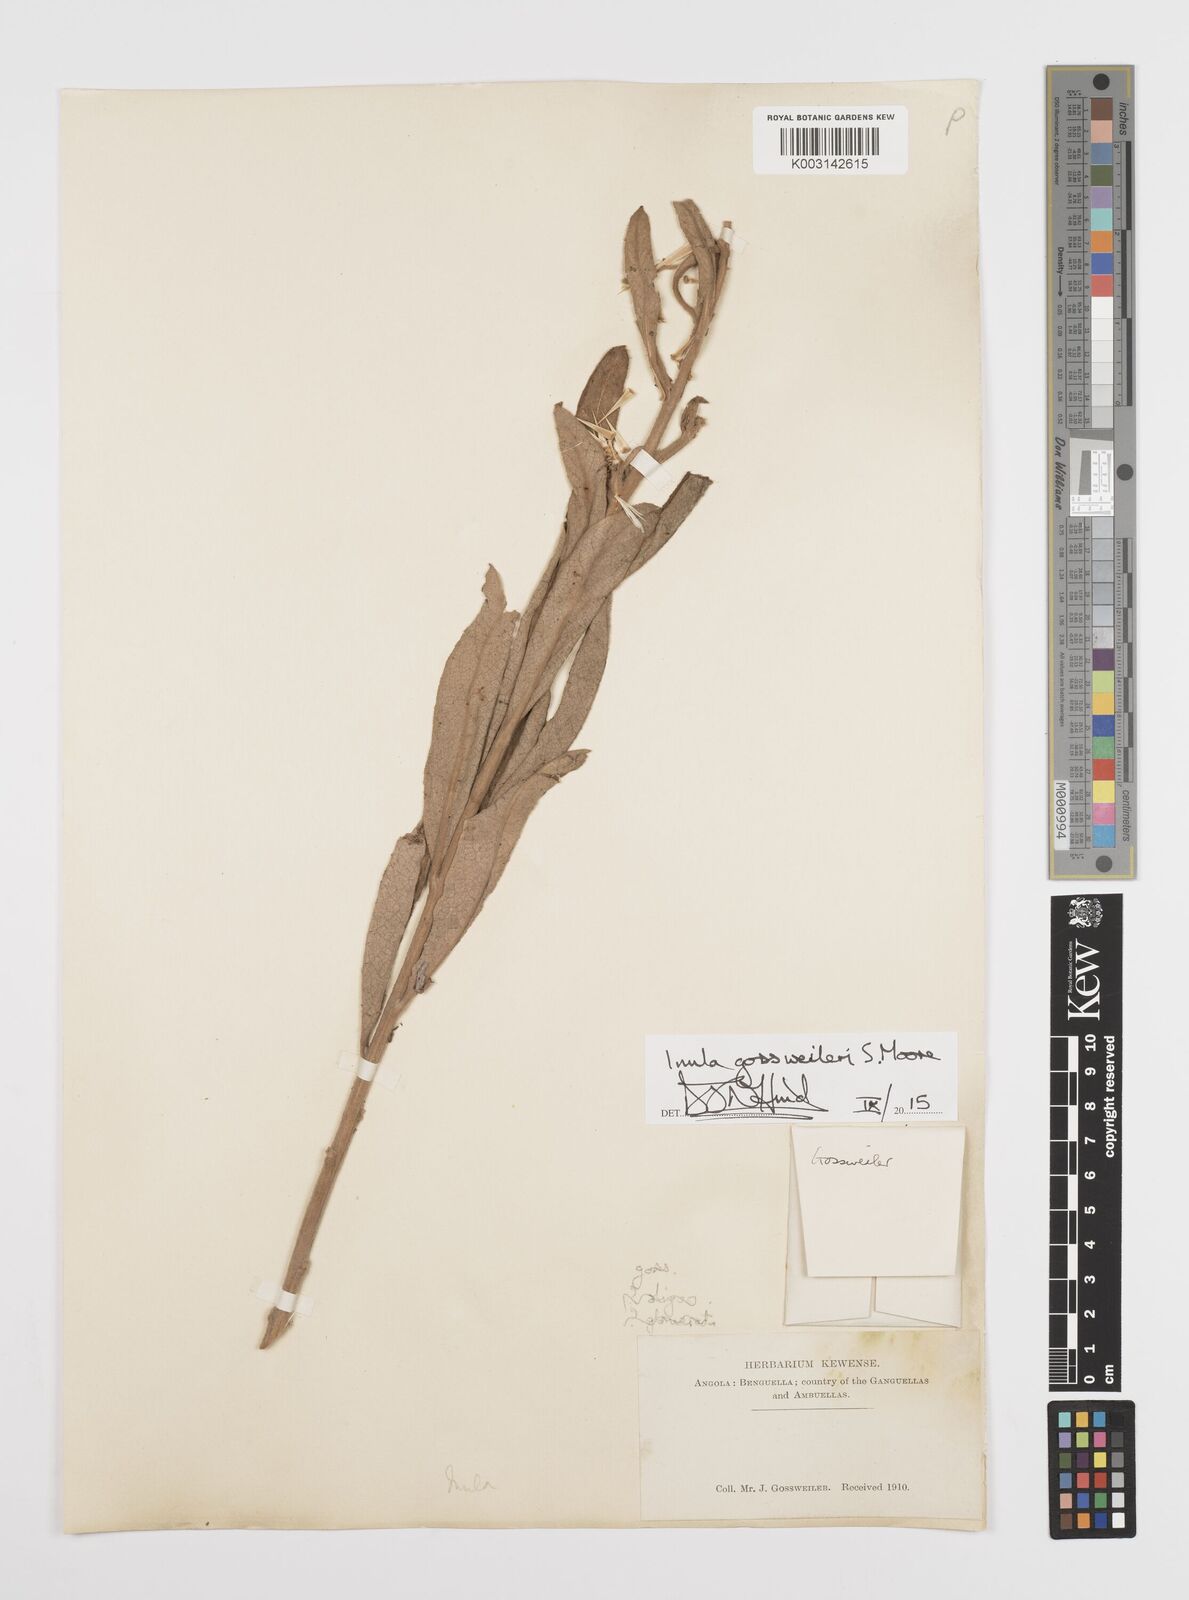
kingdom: Plantae
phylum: Tracheophyta
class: Magnoliopsida
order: Asterales
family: Asteraceae
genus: Inula
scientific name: Inula gossweileri
